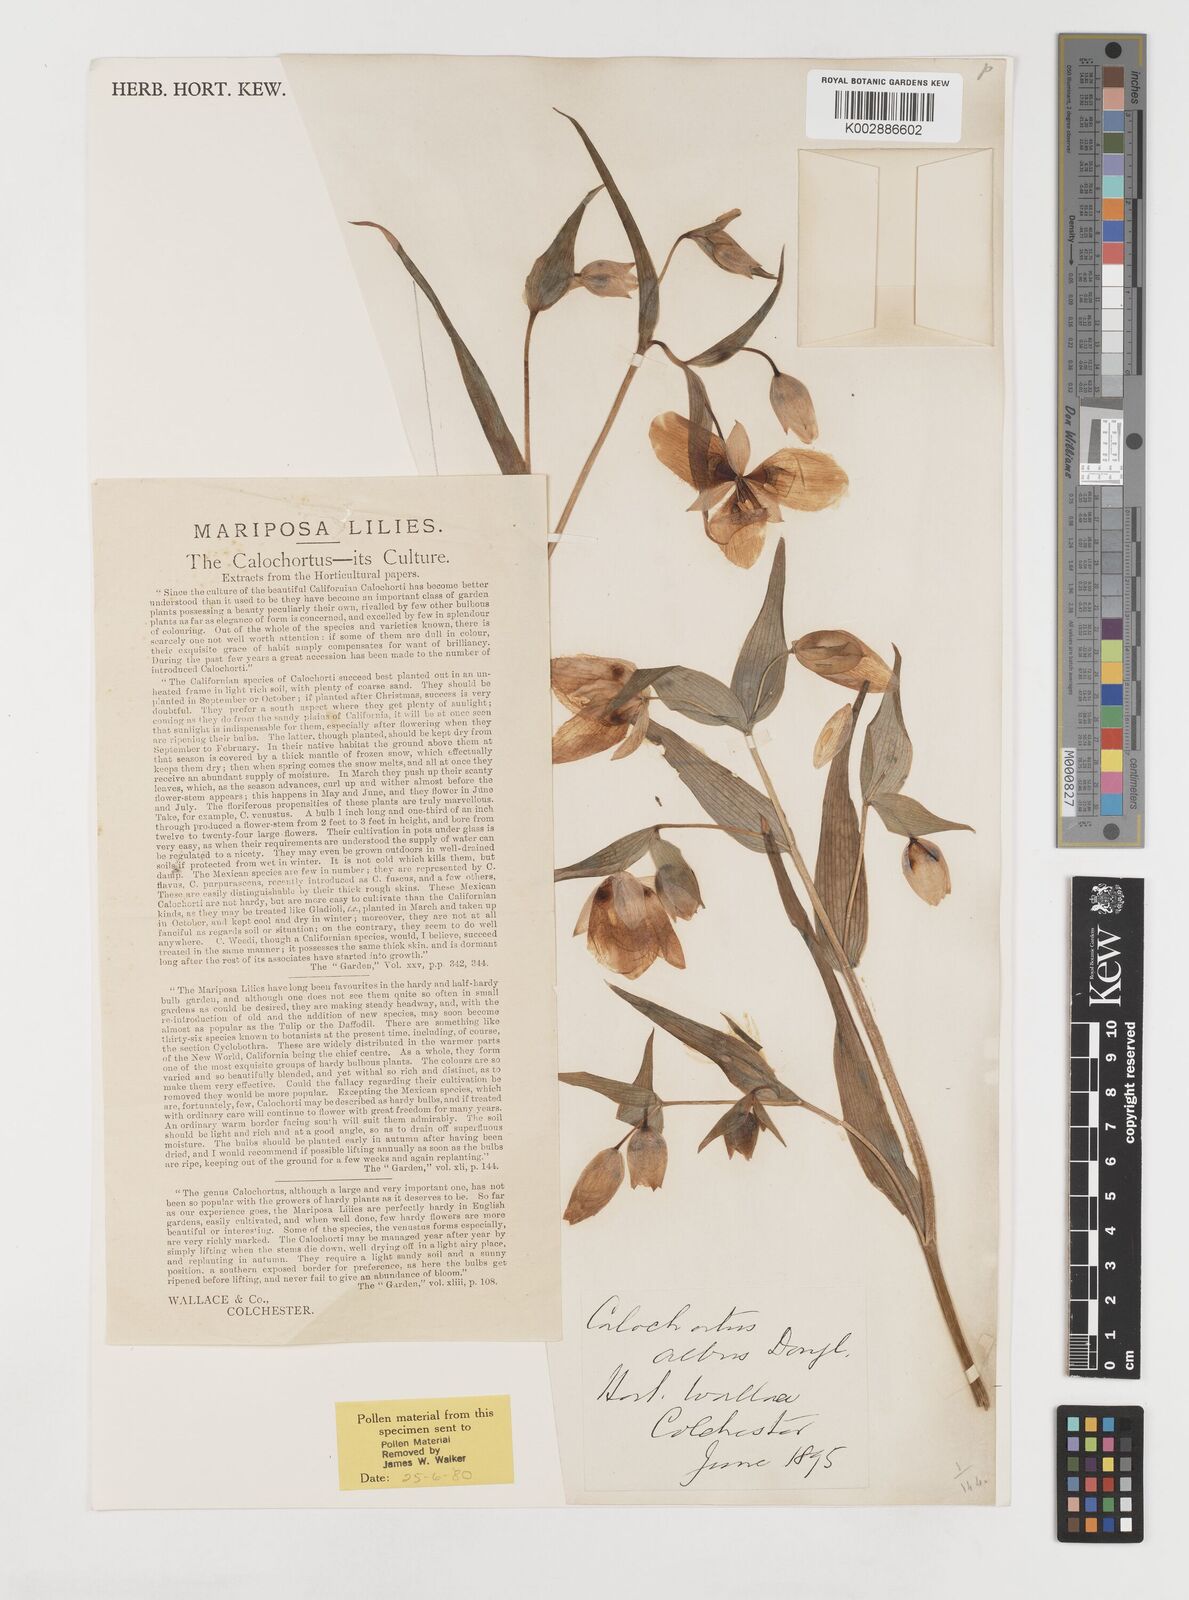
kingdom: Plantae
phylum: Tracheophyta
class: Liliopsida
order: Liliales
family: Liliaceae
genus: Calochortus
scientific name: Calochortus albus
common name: Fairy-lantern
